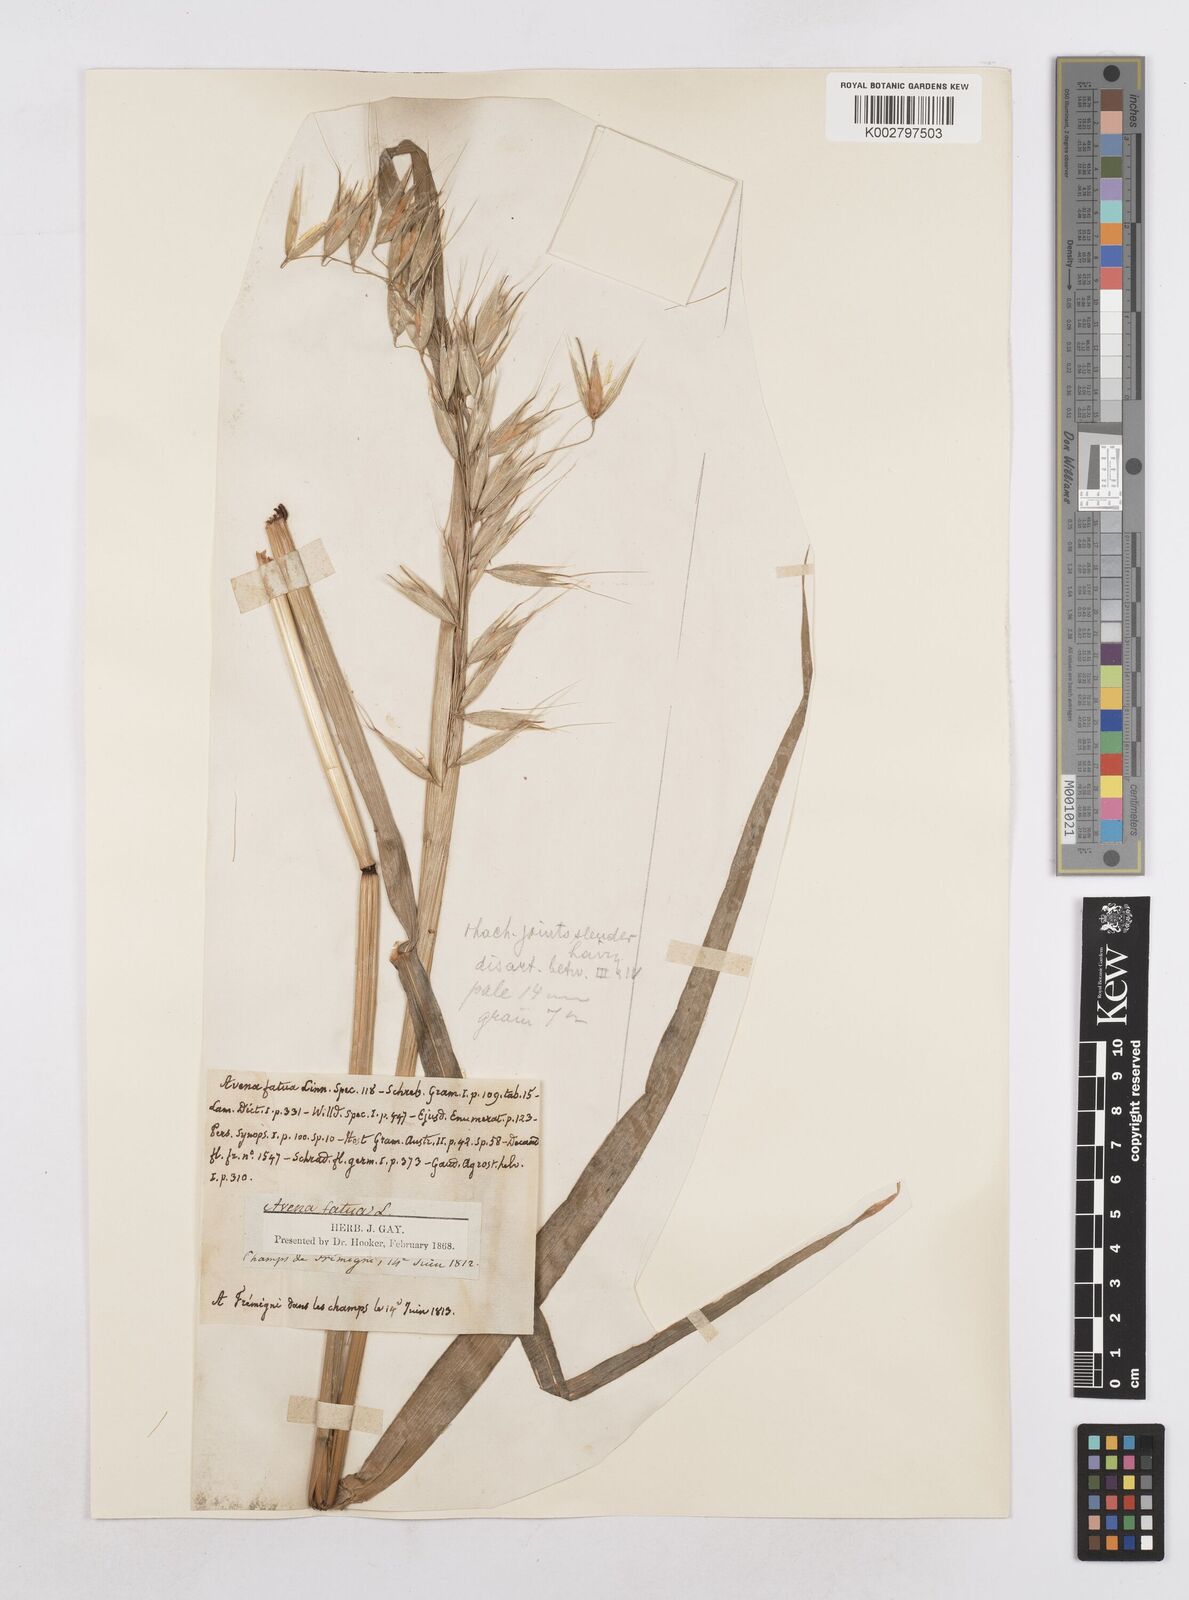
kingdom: Plantae
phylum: Tracheophyta
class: Liliopsida
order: Poales
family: Poaceae
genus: Avena
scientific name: Avena fatua
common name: Wild oat
